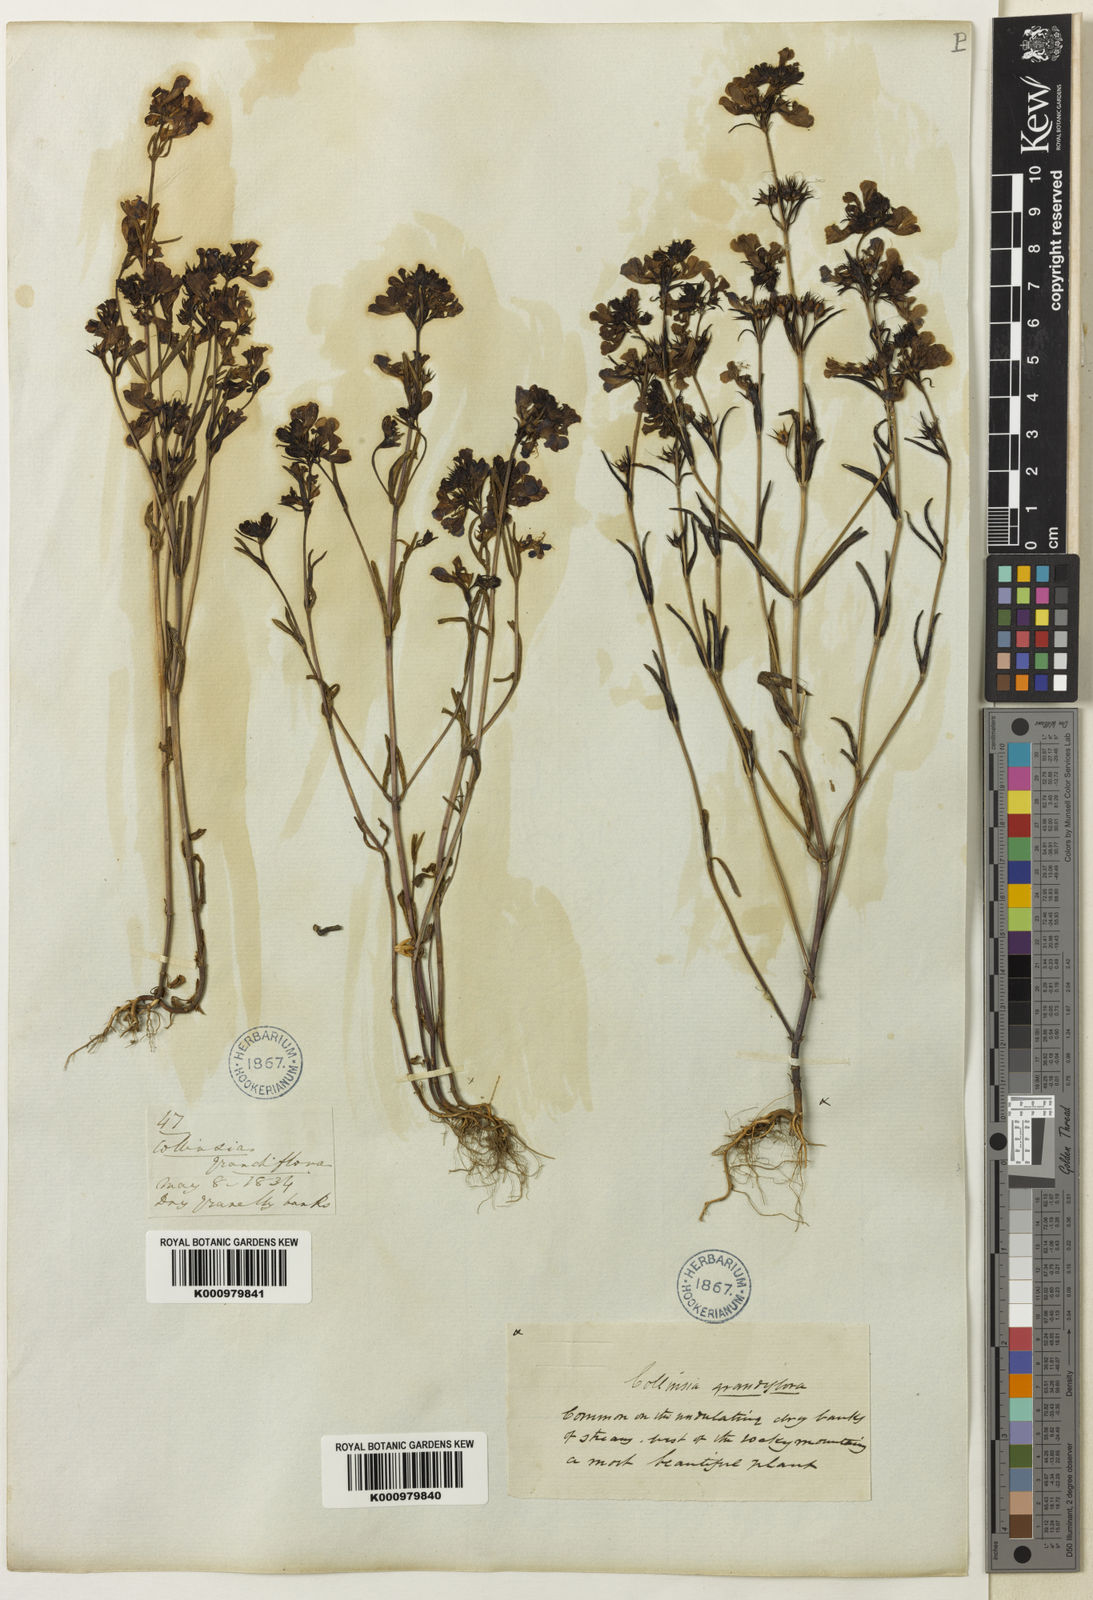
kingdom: Plantae
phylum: Tracheophyta
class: Magnoliopsida
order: Lamiales
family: Plantaginaceae
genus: Collinsia
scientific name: Collinsia grandiflora
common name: Large-flower blue-eyed-mary
